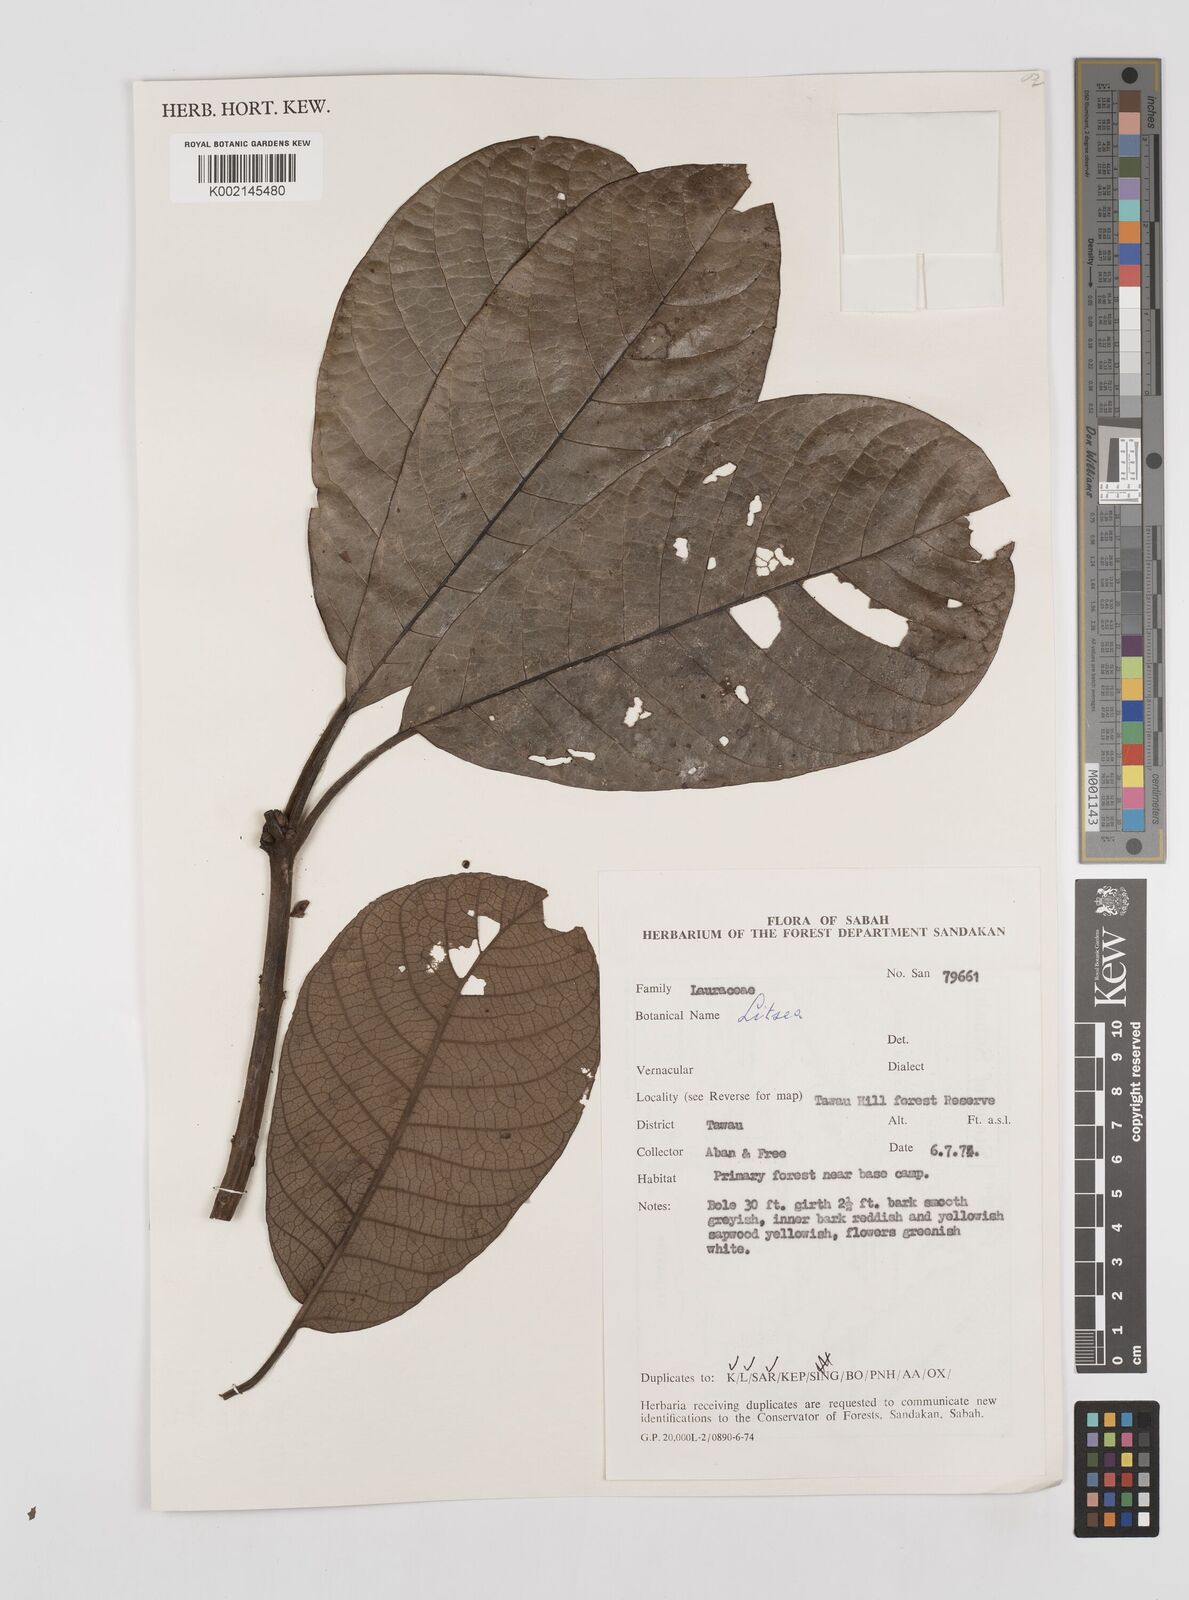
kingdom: Plantae
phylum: Tracheophyta
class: Magnoliopsida
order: Laurales
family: Lauraceae
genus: Litsea
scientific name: Litsea
